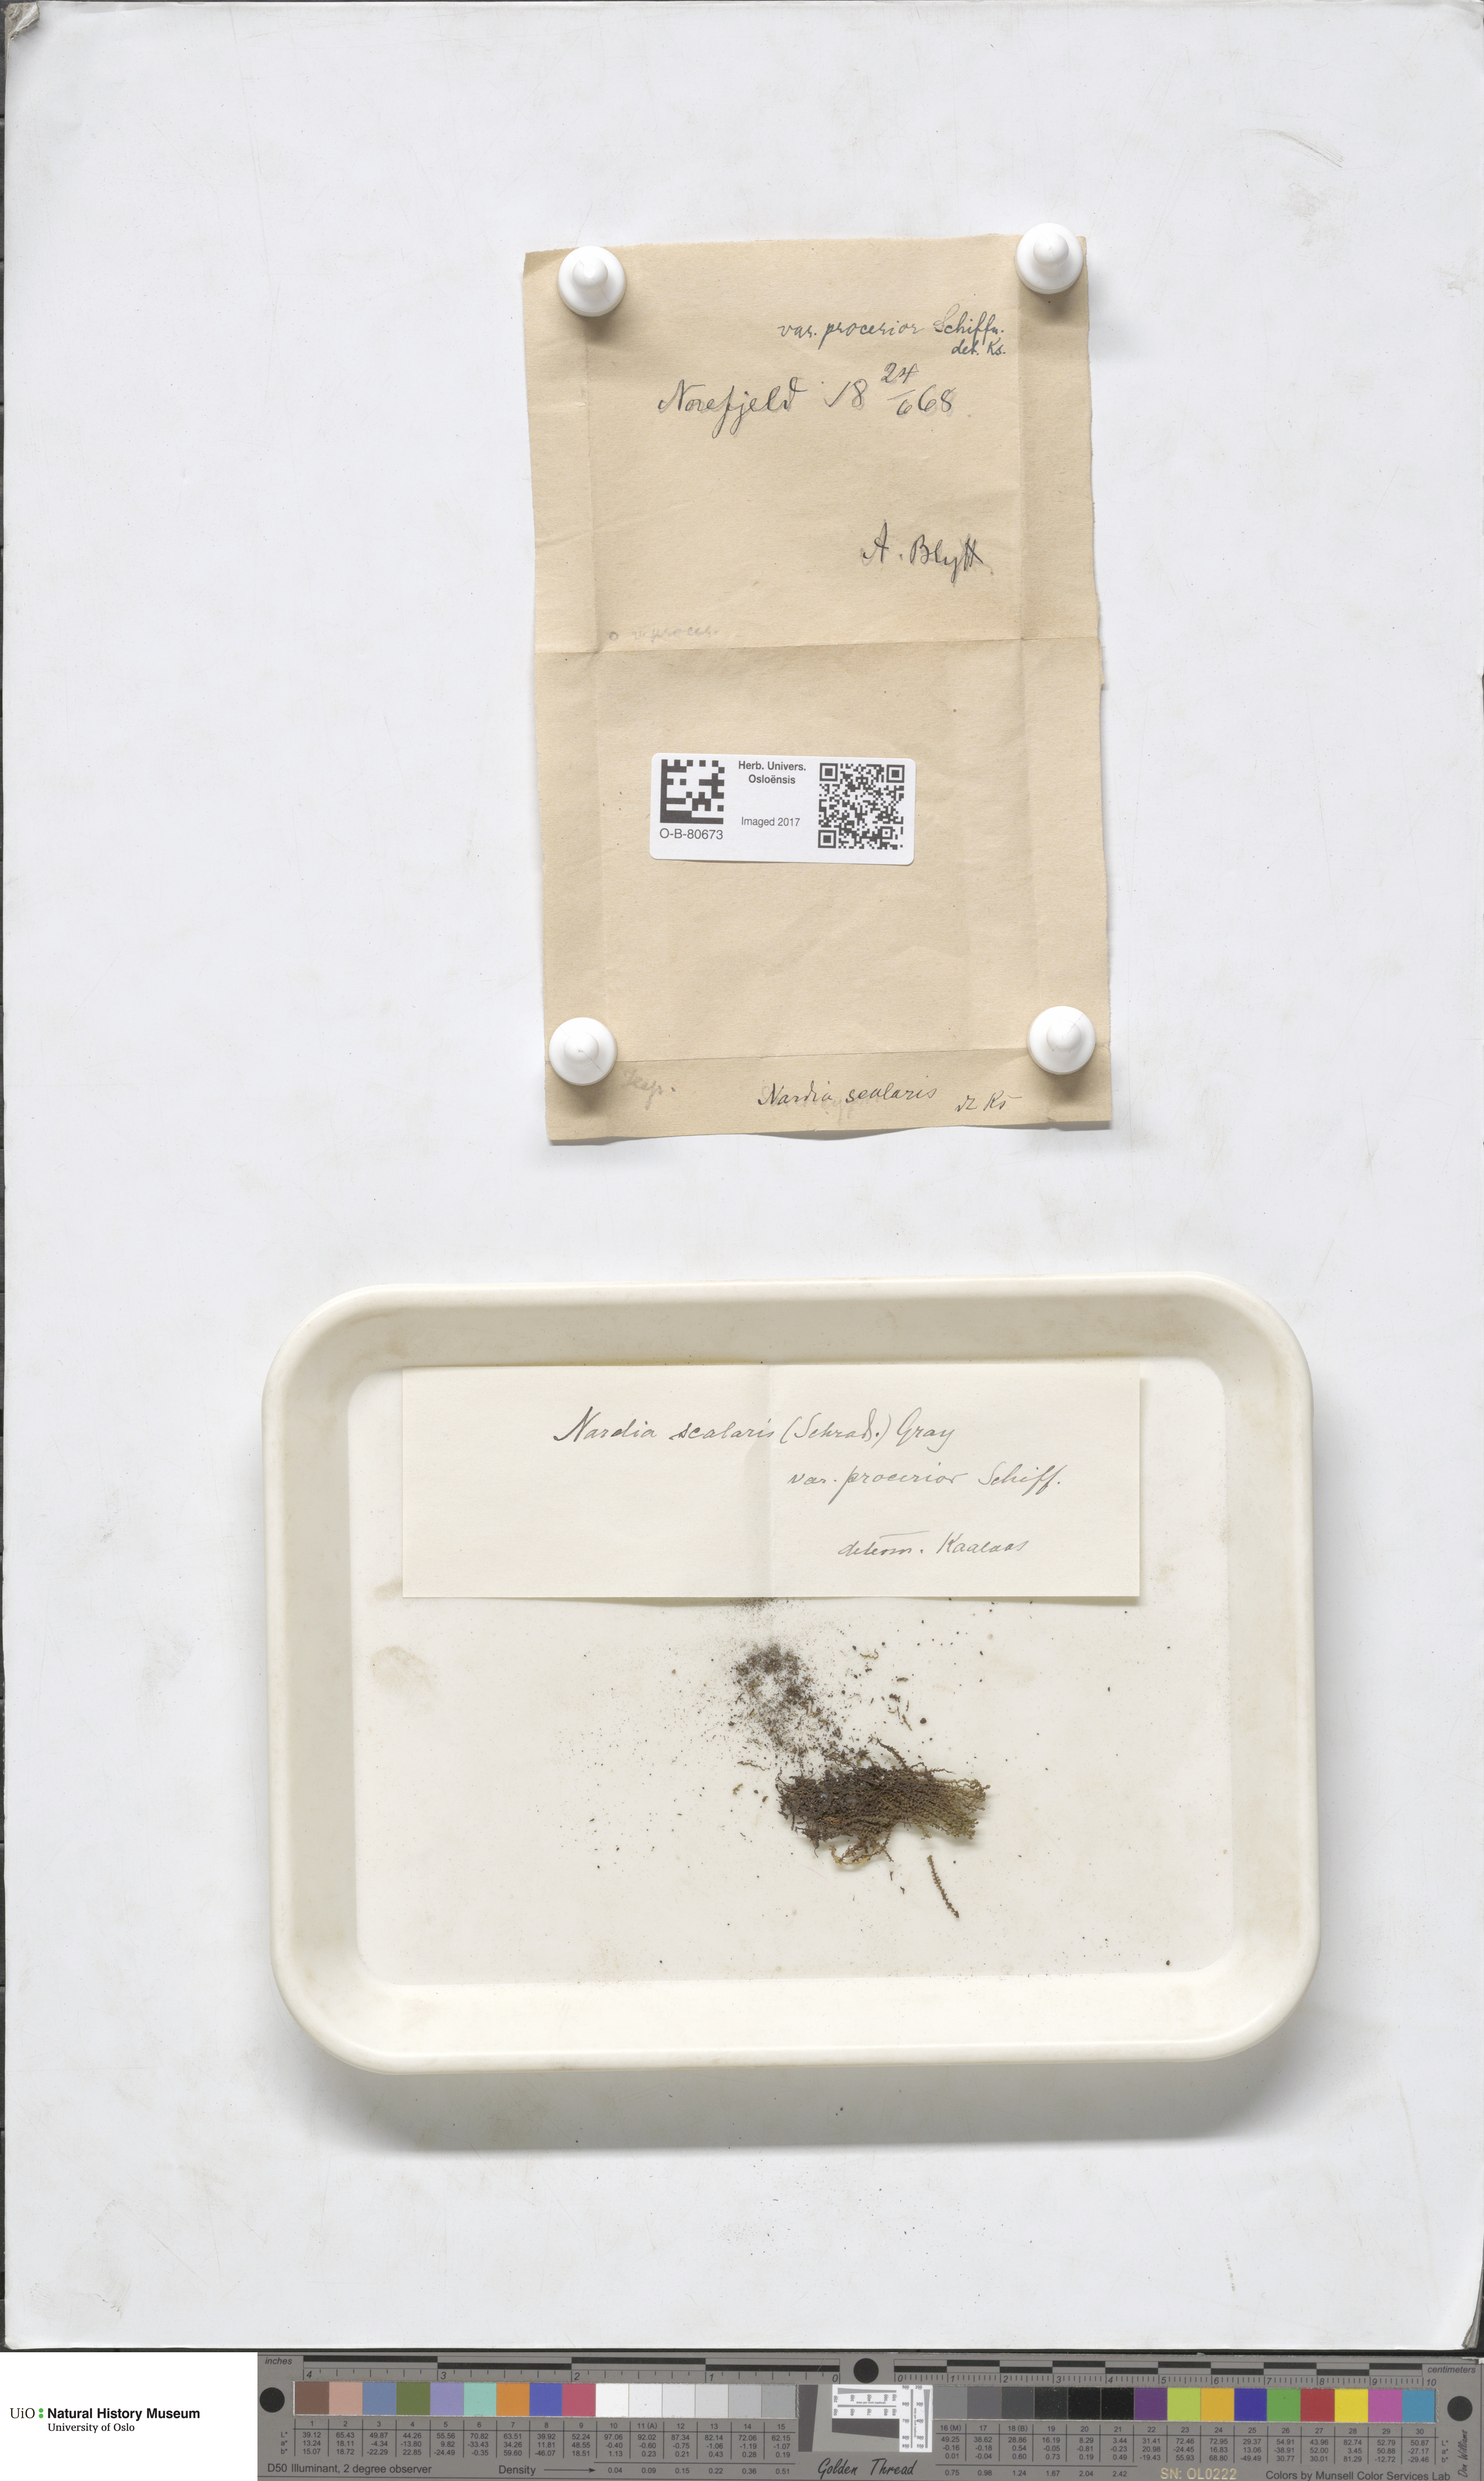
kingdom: Plantae
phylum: Marchantiophyta
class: Jungermanniopsida
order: Jungermanniales
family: Gymnomitriaceae
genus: Nardia
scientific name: Nardia scalaris
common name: Ladder flapwort
